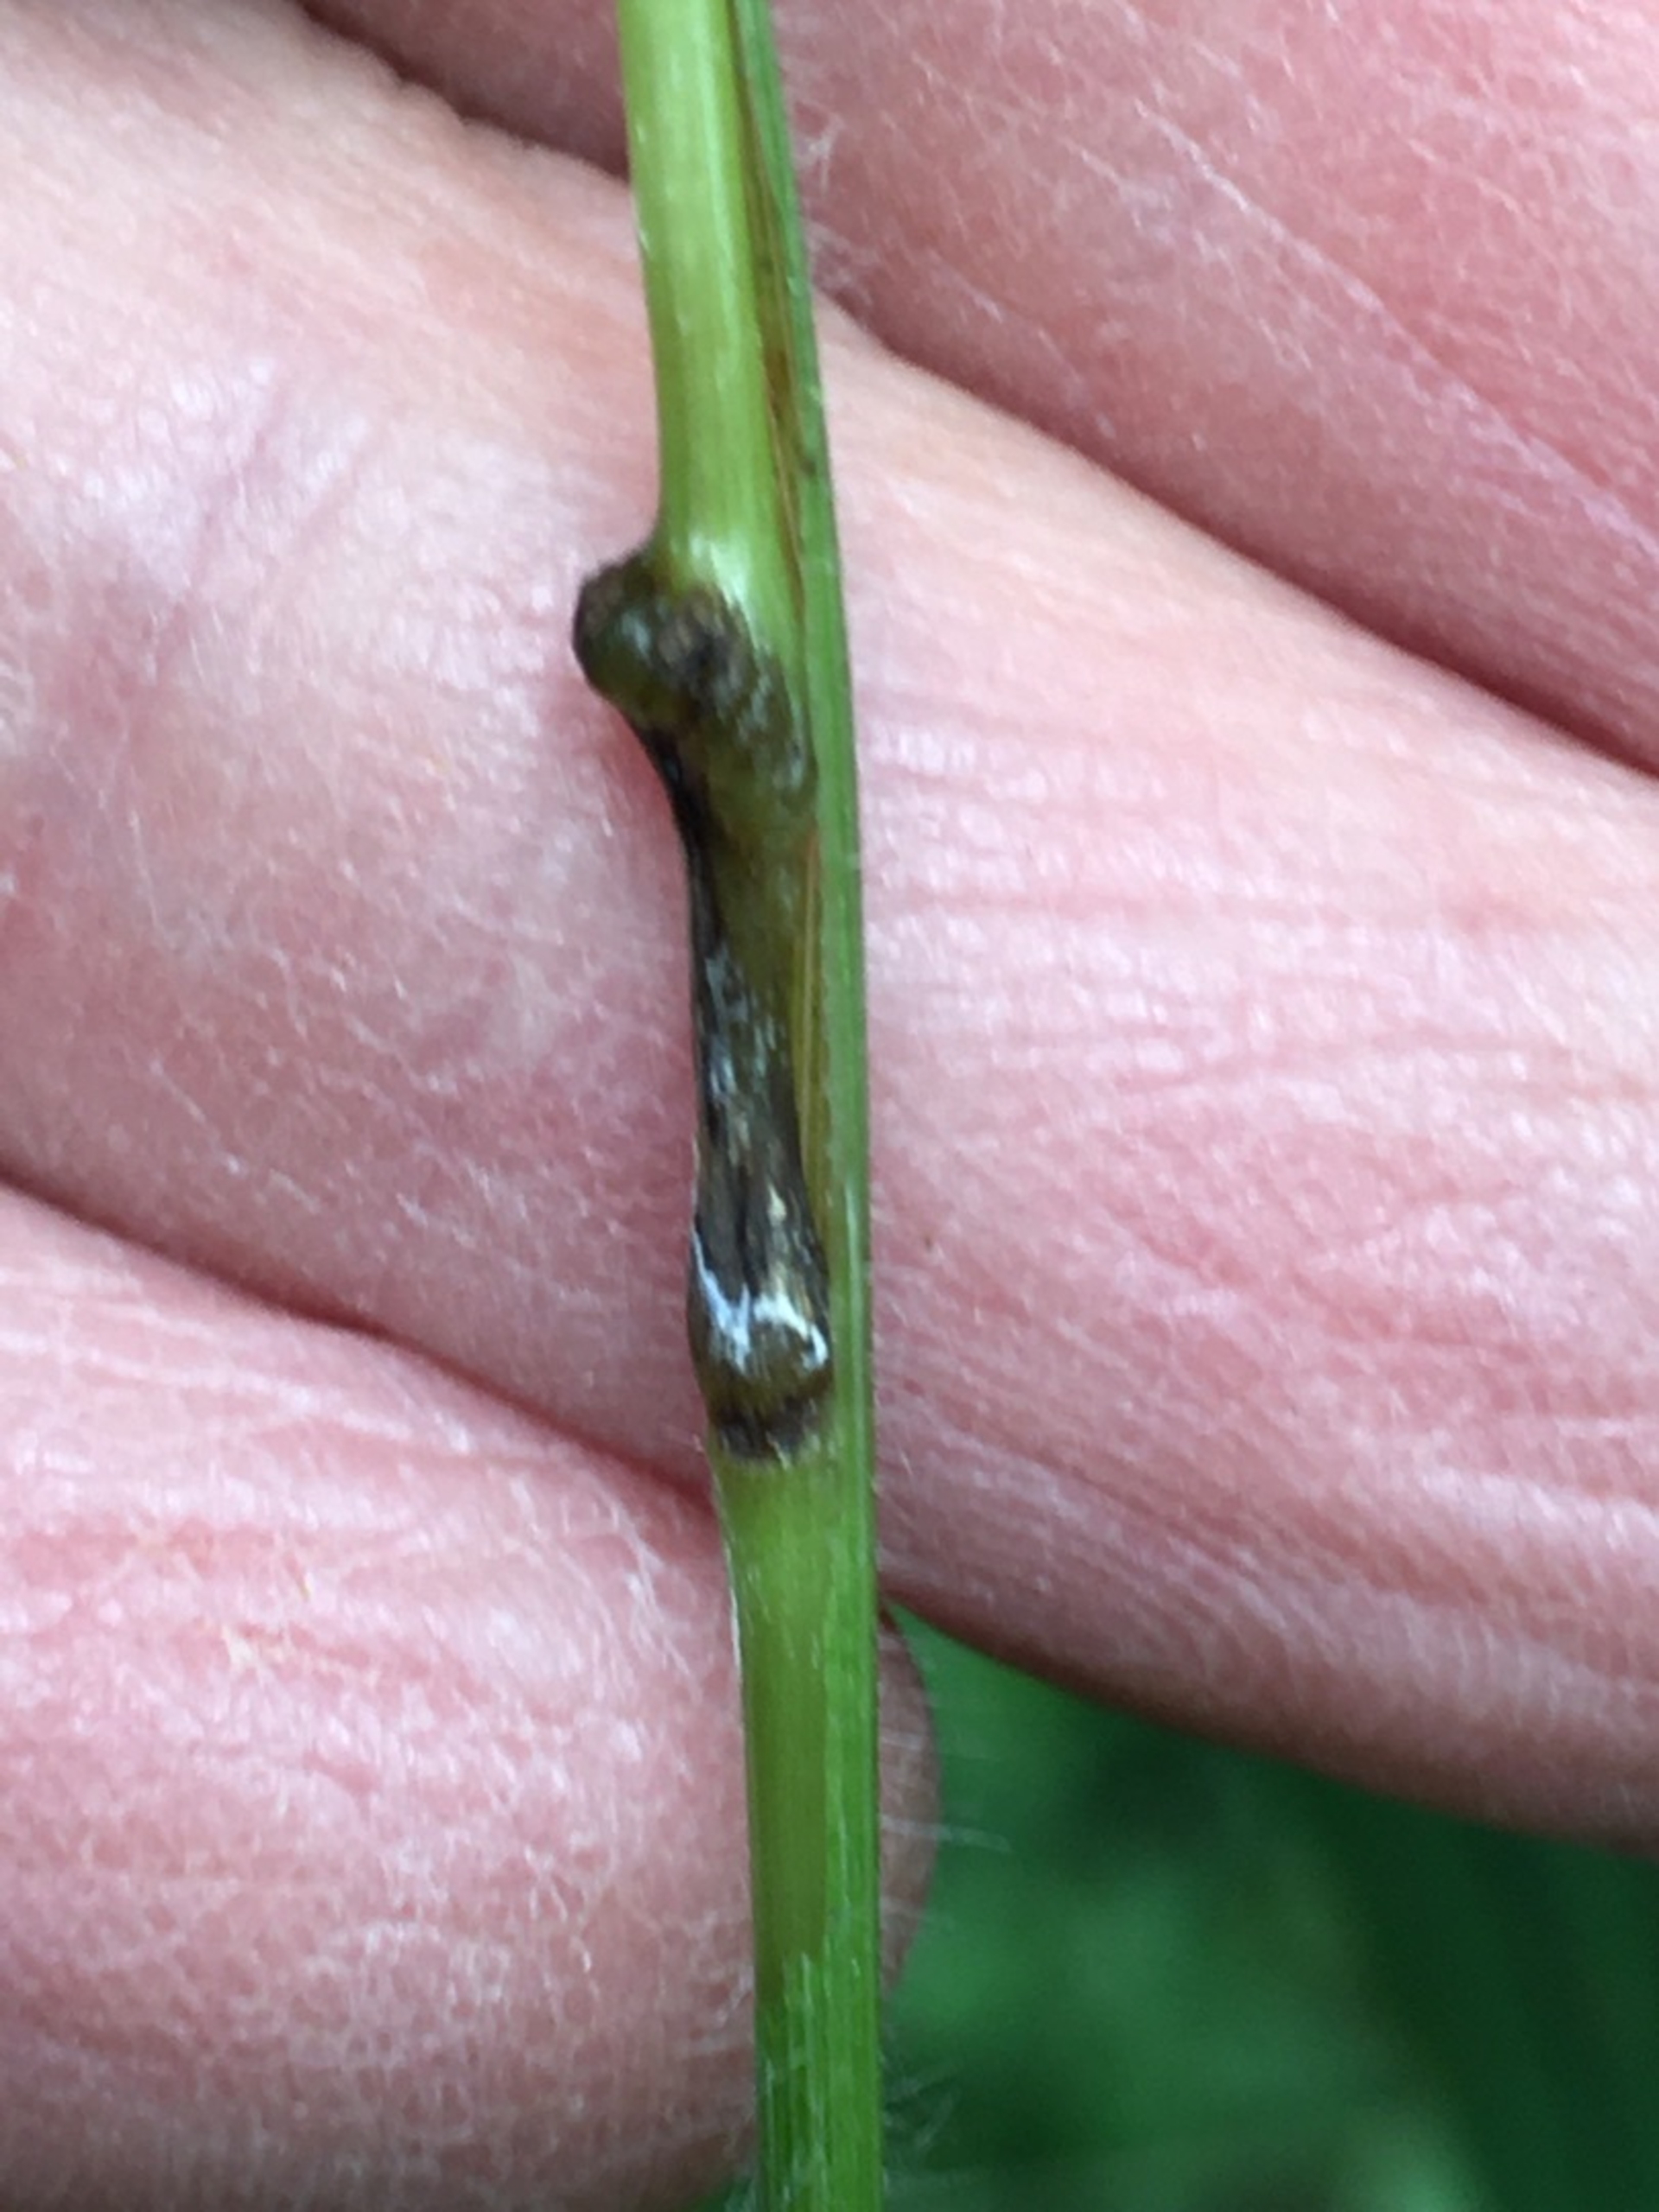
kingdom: Animalia
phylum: Arthropoda
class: Insecta
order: Diptera
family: Cecidomyiidae
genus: Mayetiola
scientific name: Mayetiola hellwigi
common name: Stilkaksgalmyg
